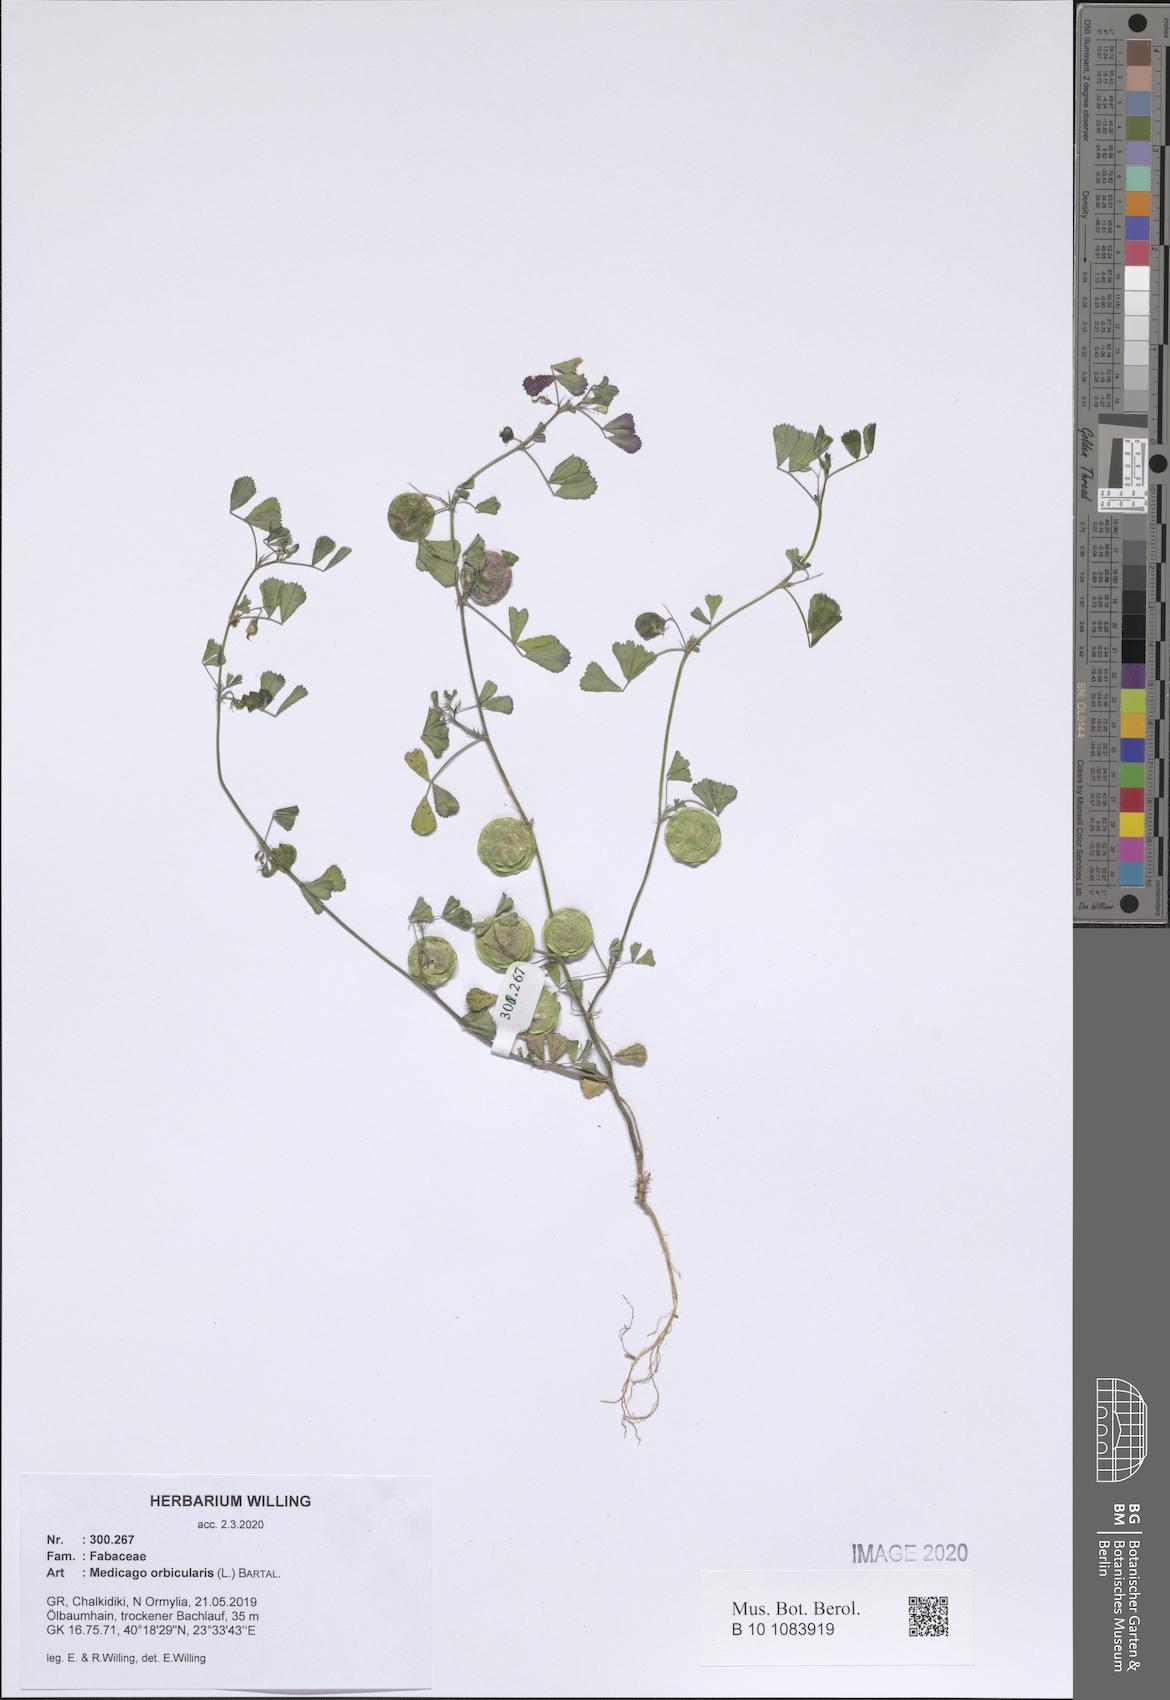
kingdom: Plantae
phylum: Tracheophyta
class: Magnoliopsida
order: Fabales
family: Fabaceae
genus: Medicago
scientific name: Medicago orbicularis
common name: Button medick
